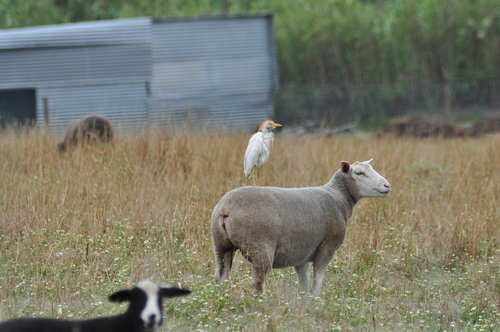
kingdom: Animalia
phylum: Chordata
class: Aves
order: Pelecaniformes
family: Ardeidae
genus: Bubulcus
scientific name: Bubulcus ibis
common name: Cattle egret
